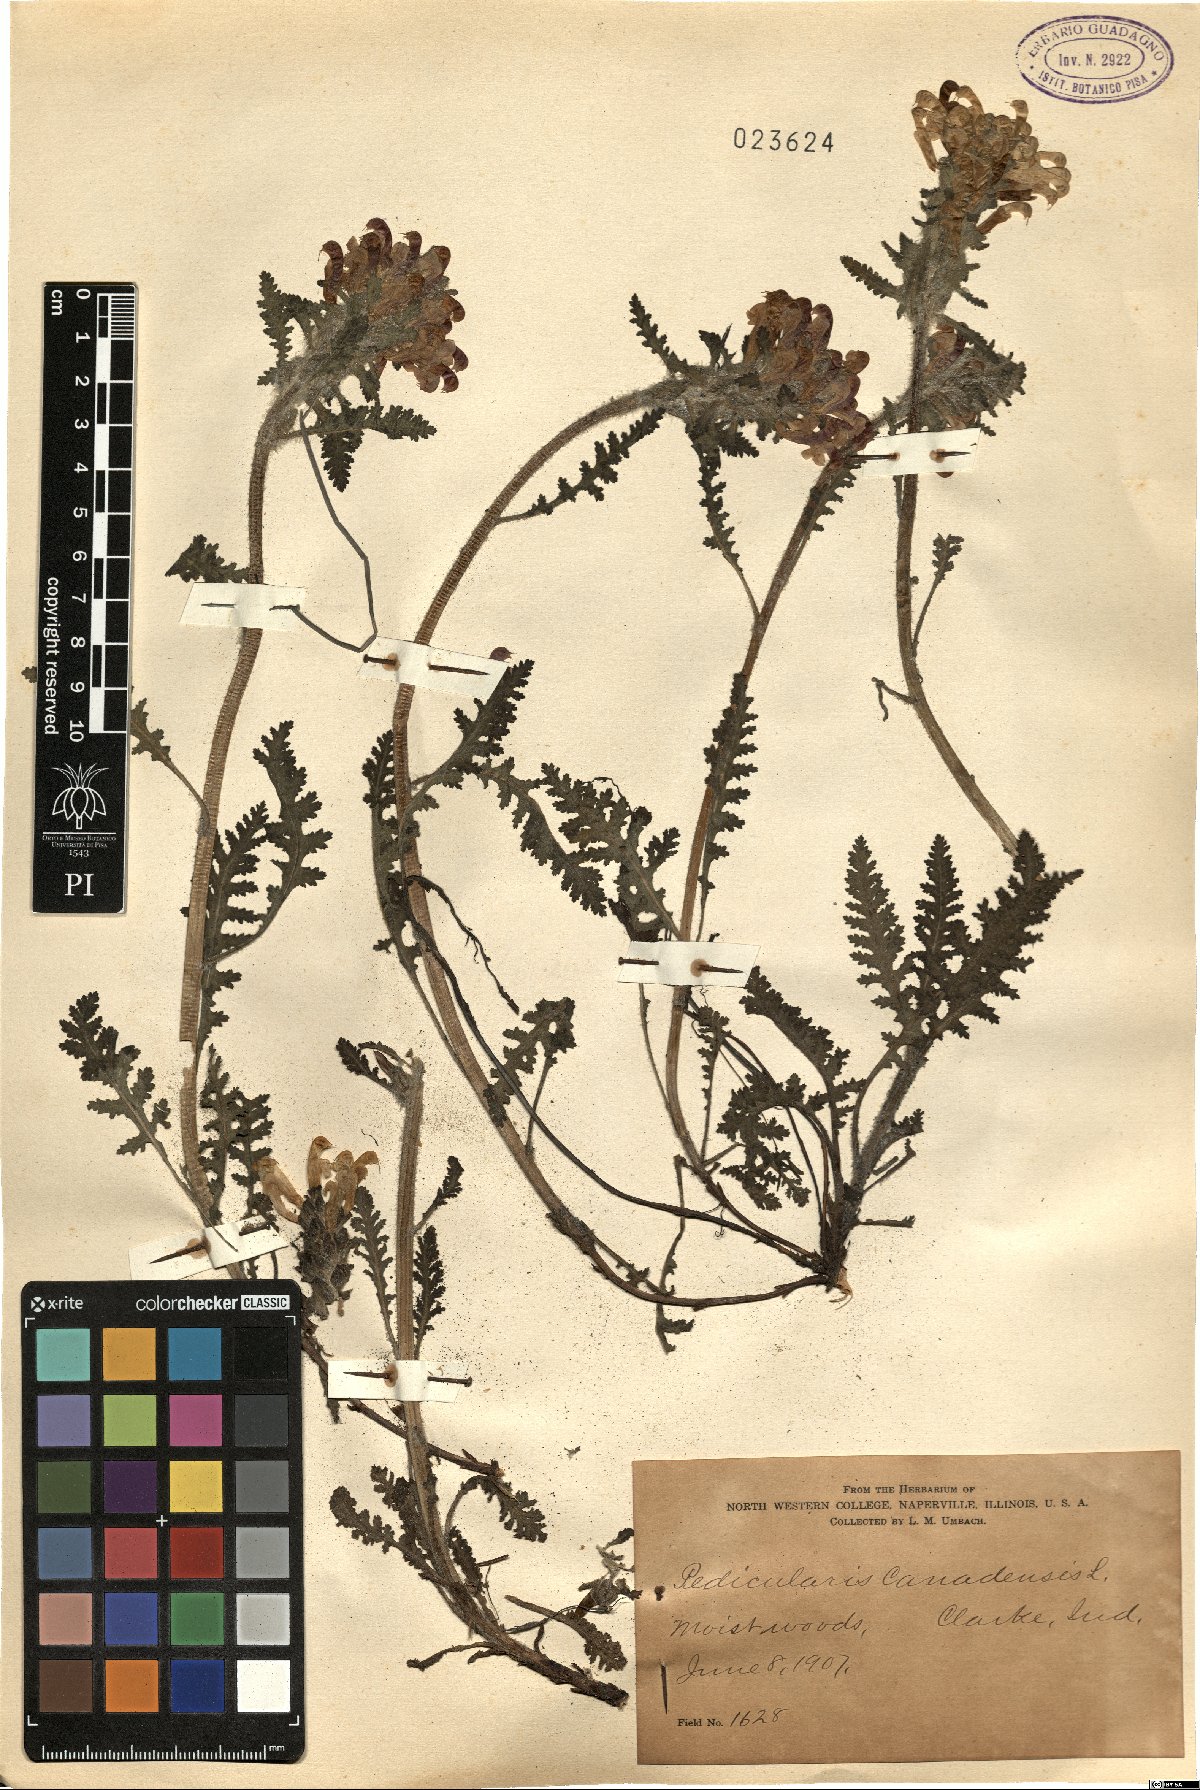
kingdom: Plantae
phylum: Tracheophyta
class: Magnoliopsida
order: Lamiales
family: Orobanchaceae
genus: Pedicularis
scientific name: Pedicularis canadensis
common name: Early lousewort
